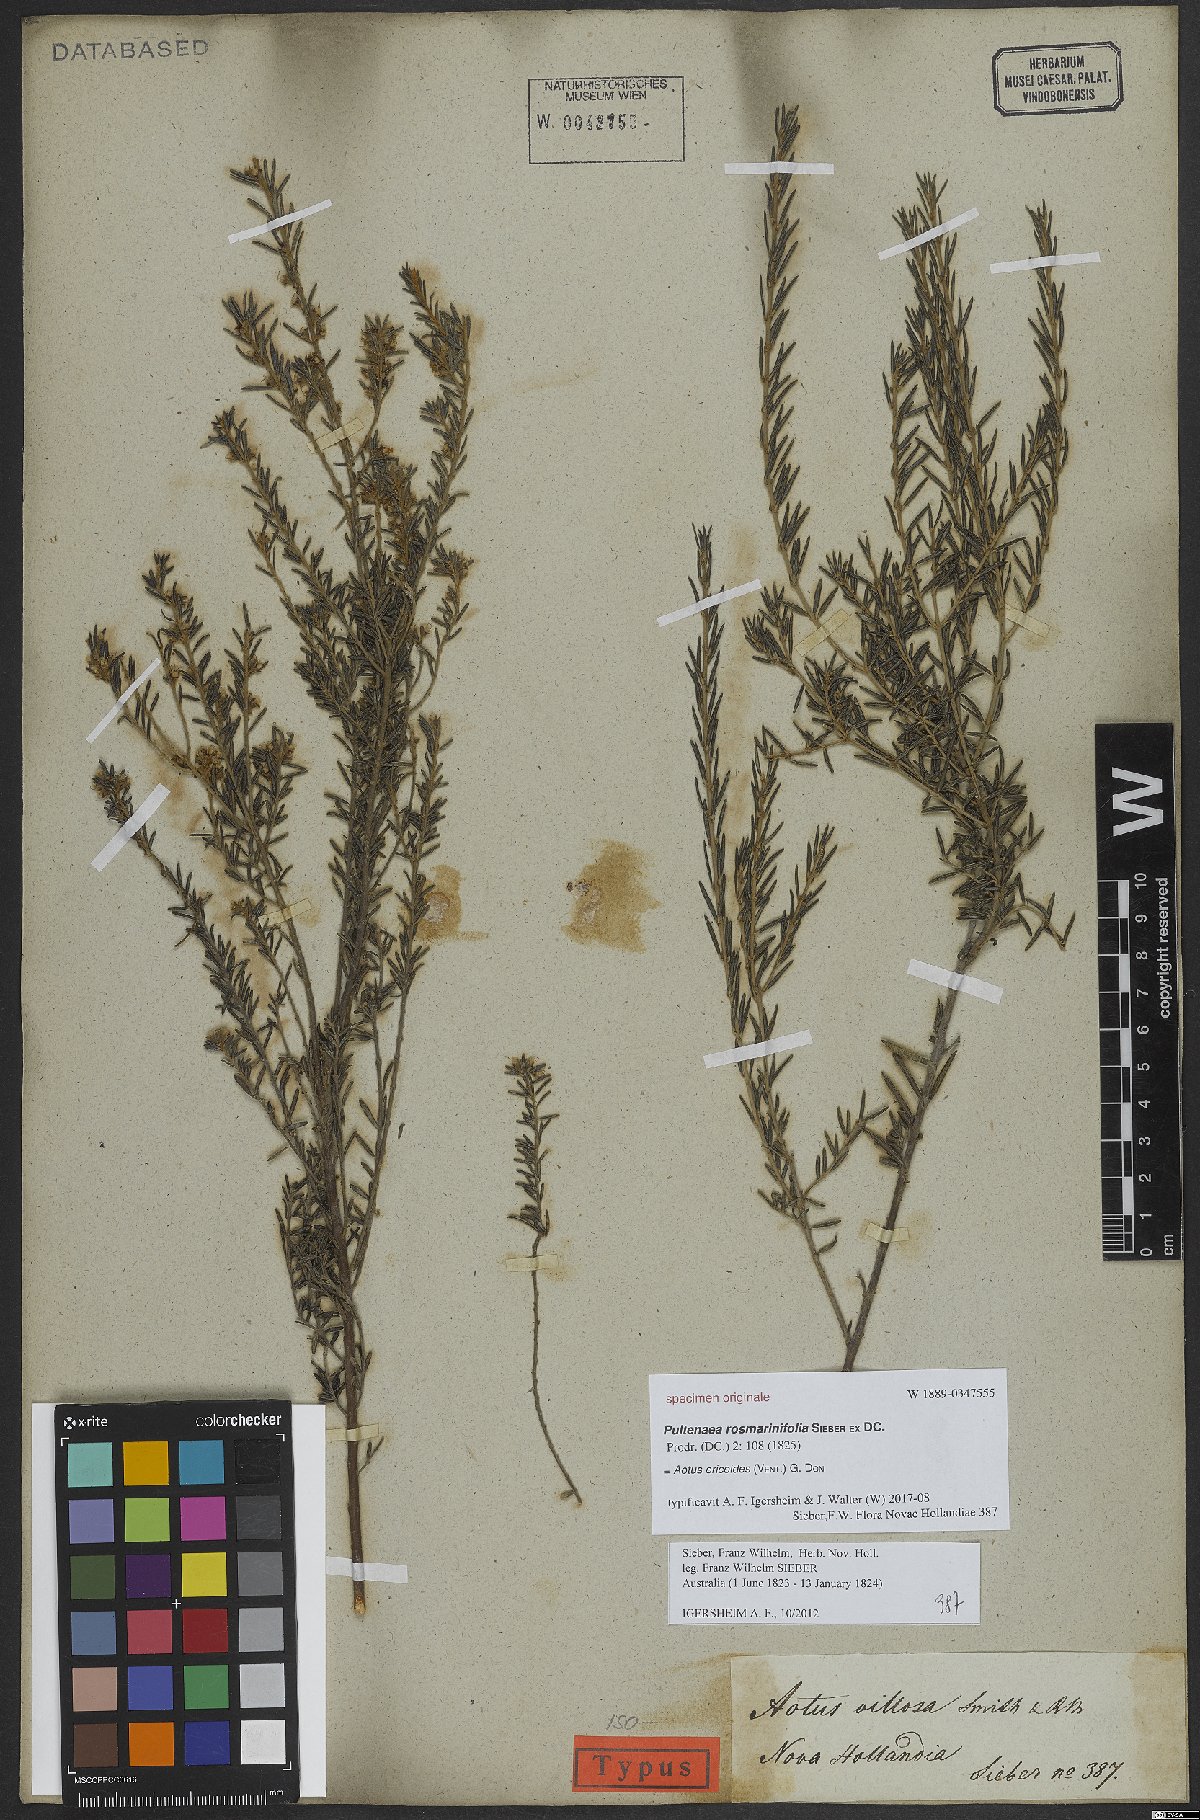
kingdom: Plantae
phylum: Tracheophyta
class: Magnoliopsida
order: Fabales
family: Fabaceae
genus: Aotus
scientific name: Aotus ericoides
